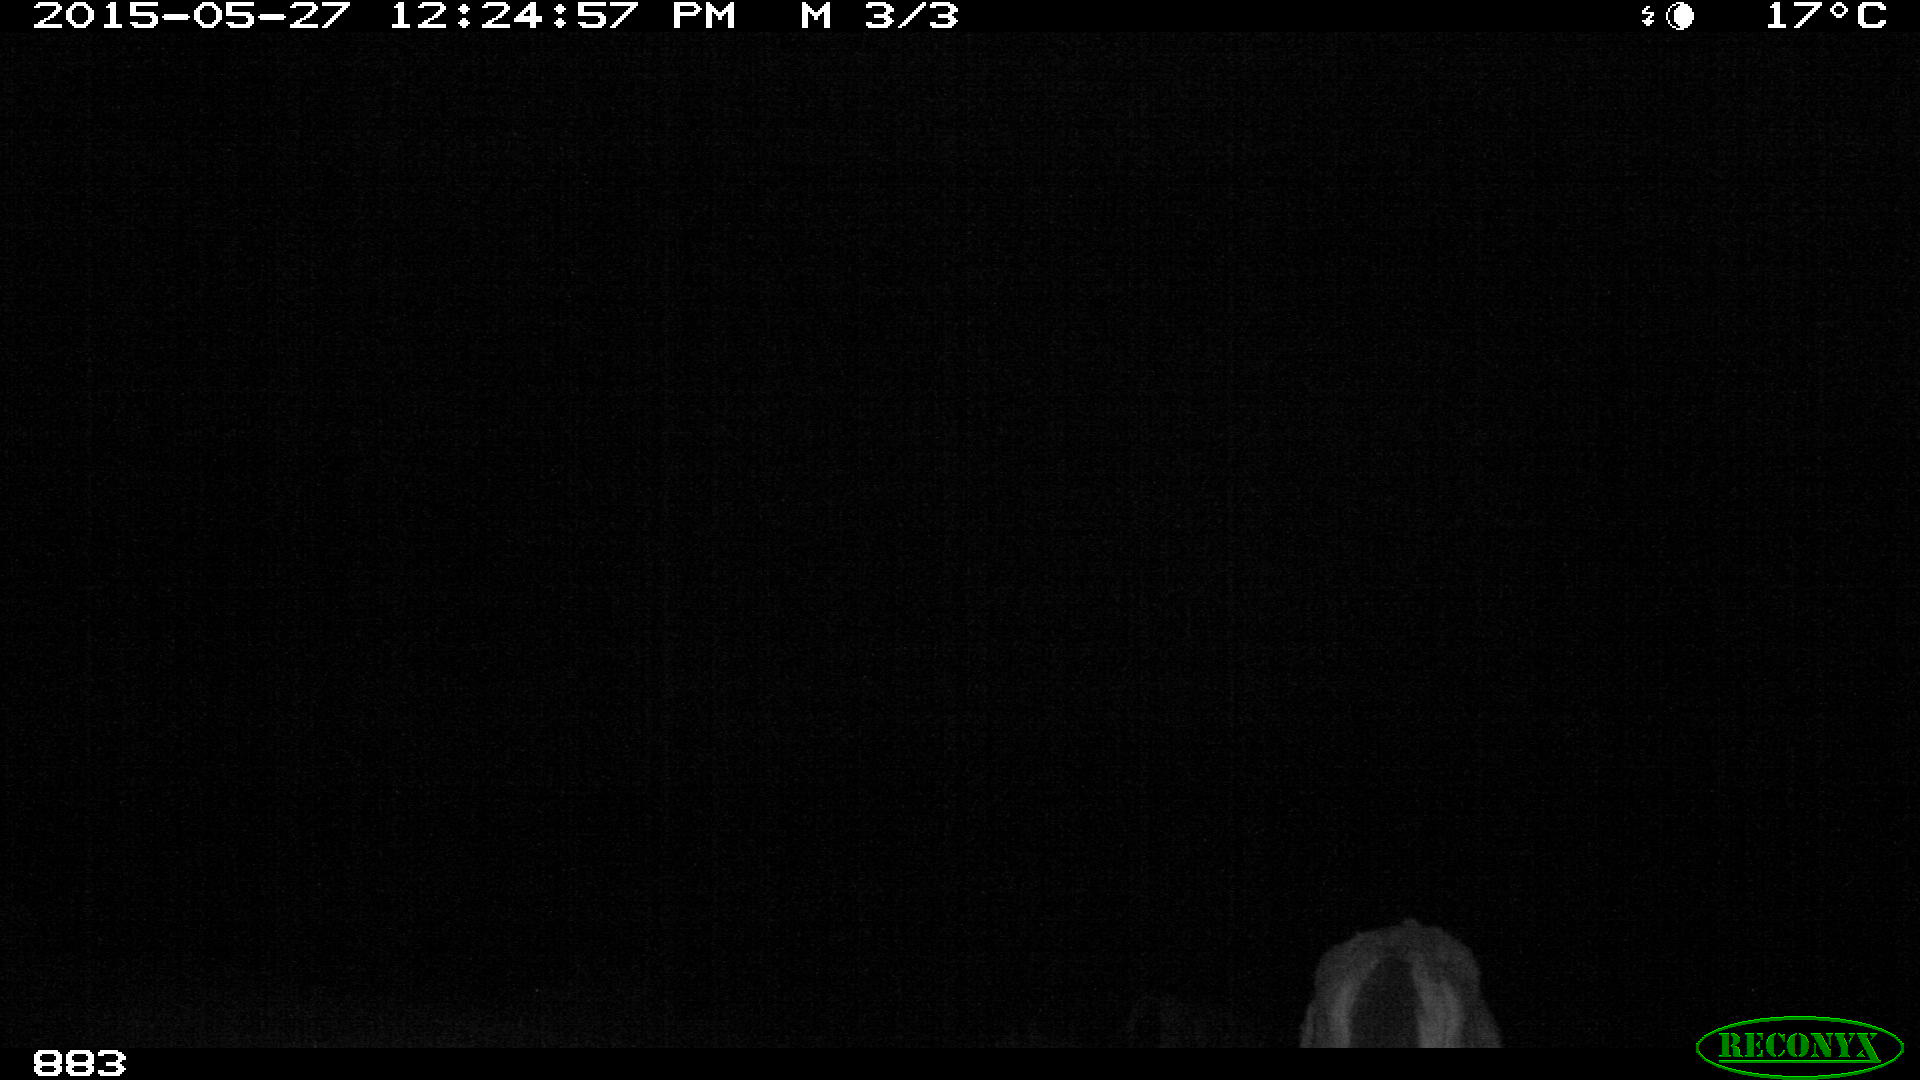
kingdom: Animalia
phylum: Chordata
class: Mammalia
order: Perissodactyla
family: Equidae
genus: Equus
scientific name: Equus caballus
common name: Horse
